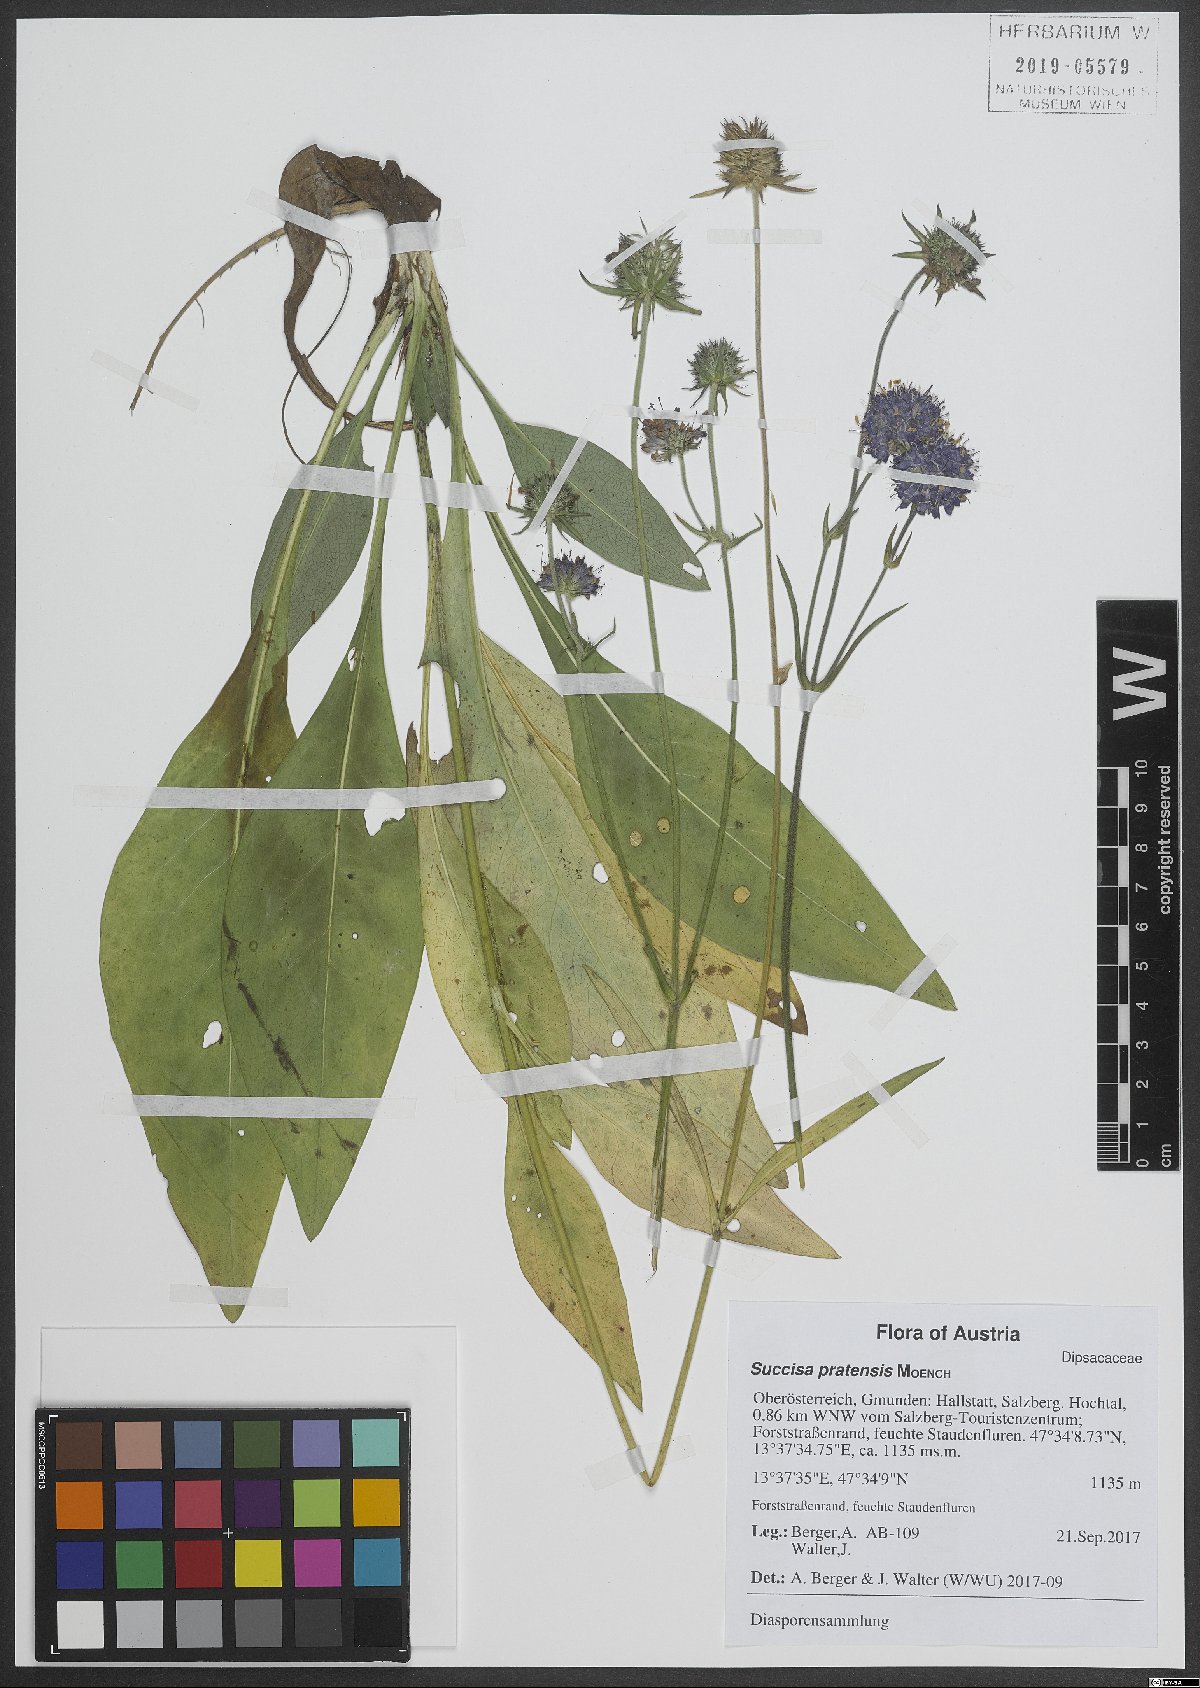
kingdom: Plantae
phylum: Tracheophyta
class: Magnoliopsida
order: Dipsacales
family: Caprifoliaceae
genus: Succisa
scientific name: Succisa pratensis
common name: Devil's-bit
